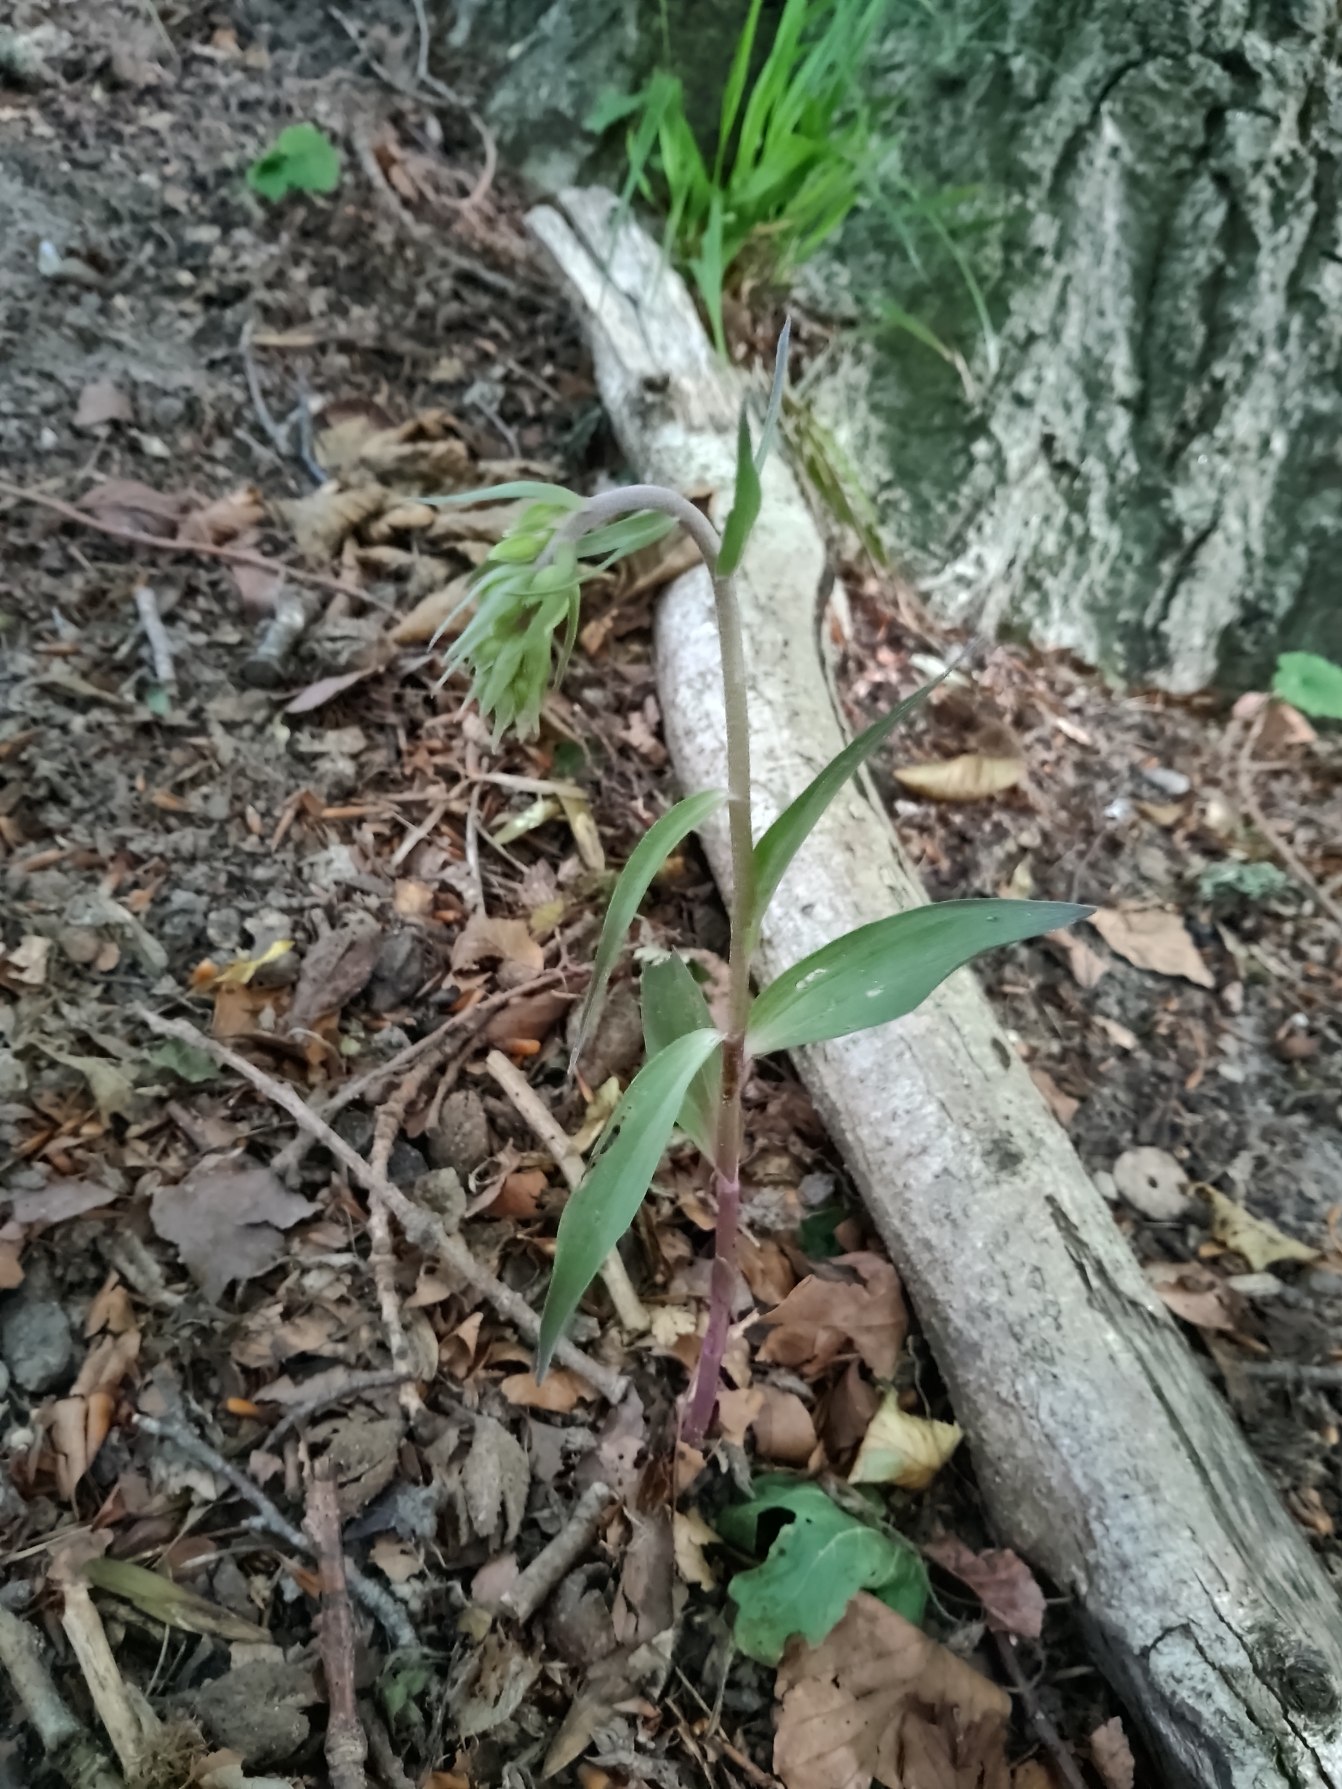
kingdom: Plantae
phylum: Tracheophyta
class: Liliopsida
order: Asparagales
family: Orchidaceae
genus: Epipactis
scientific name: Epipactis purpurata
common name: Tætblomstret hullæbe
